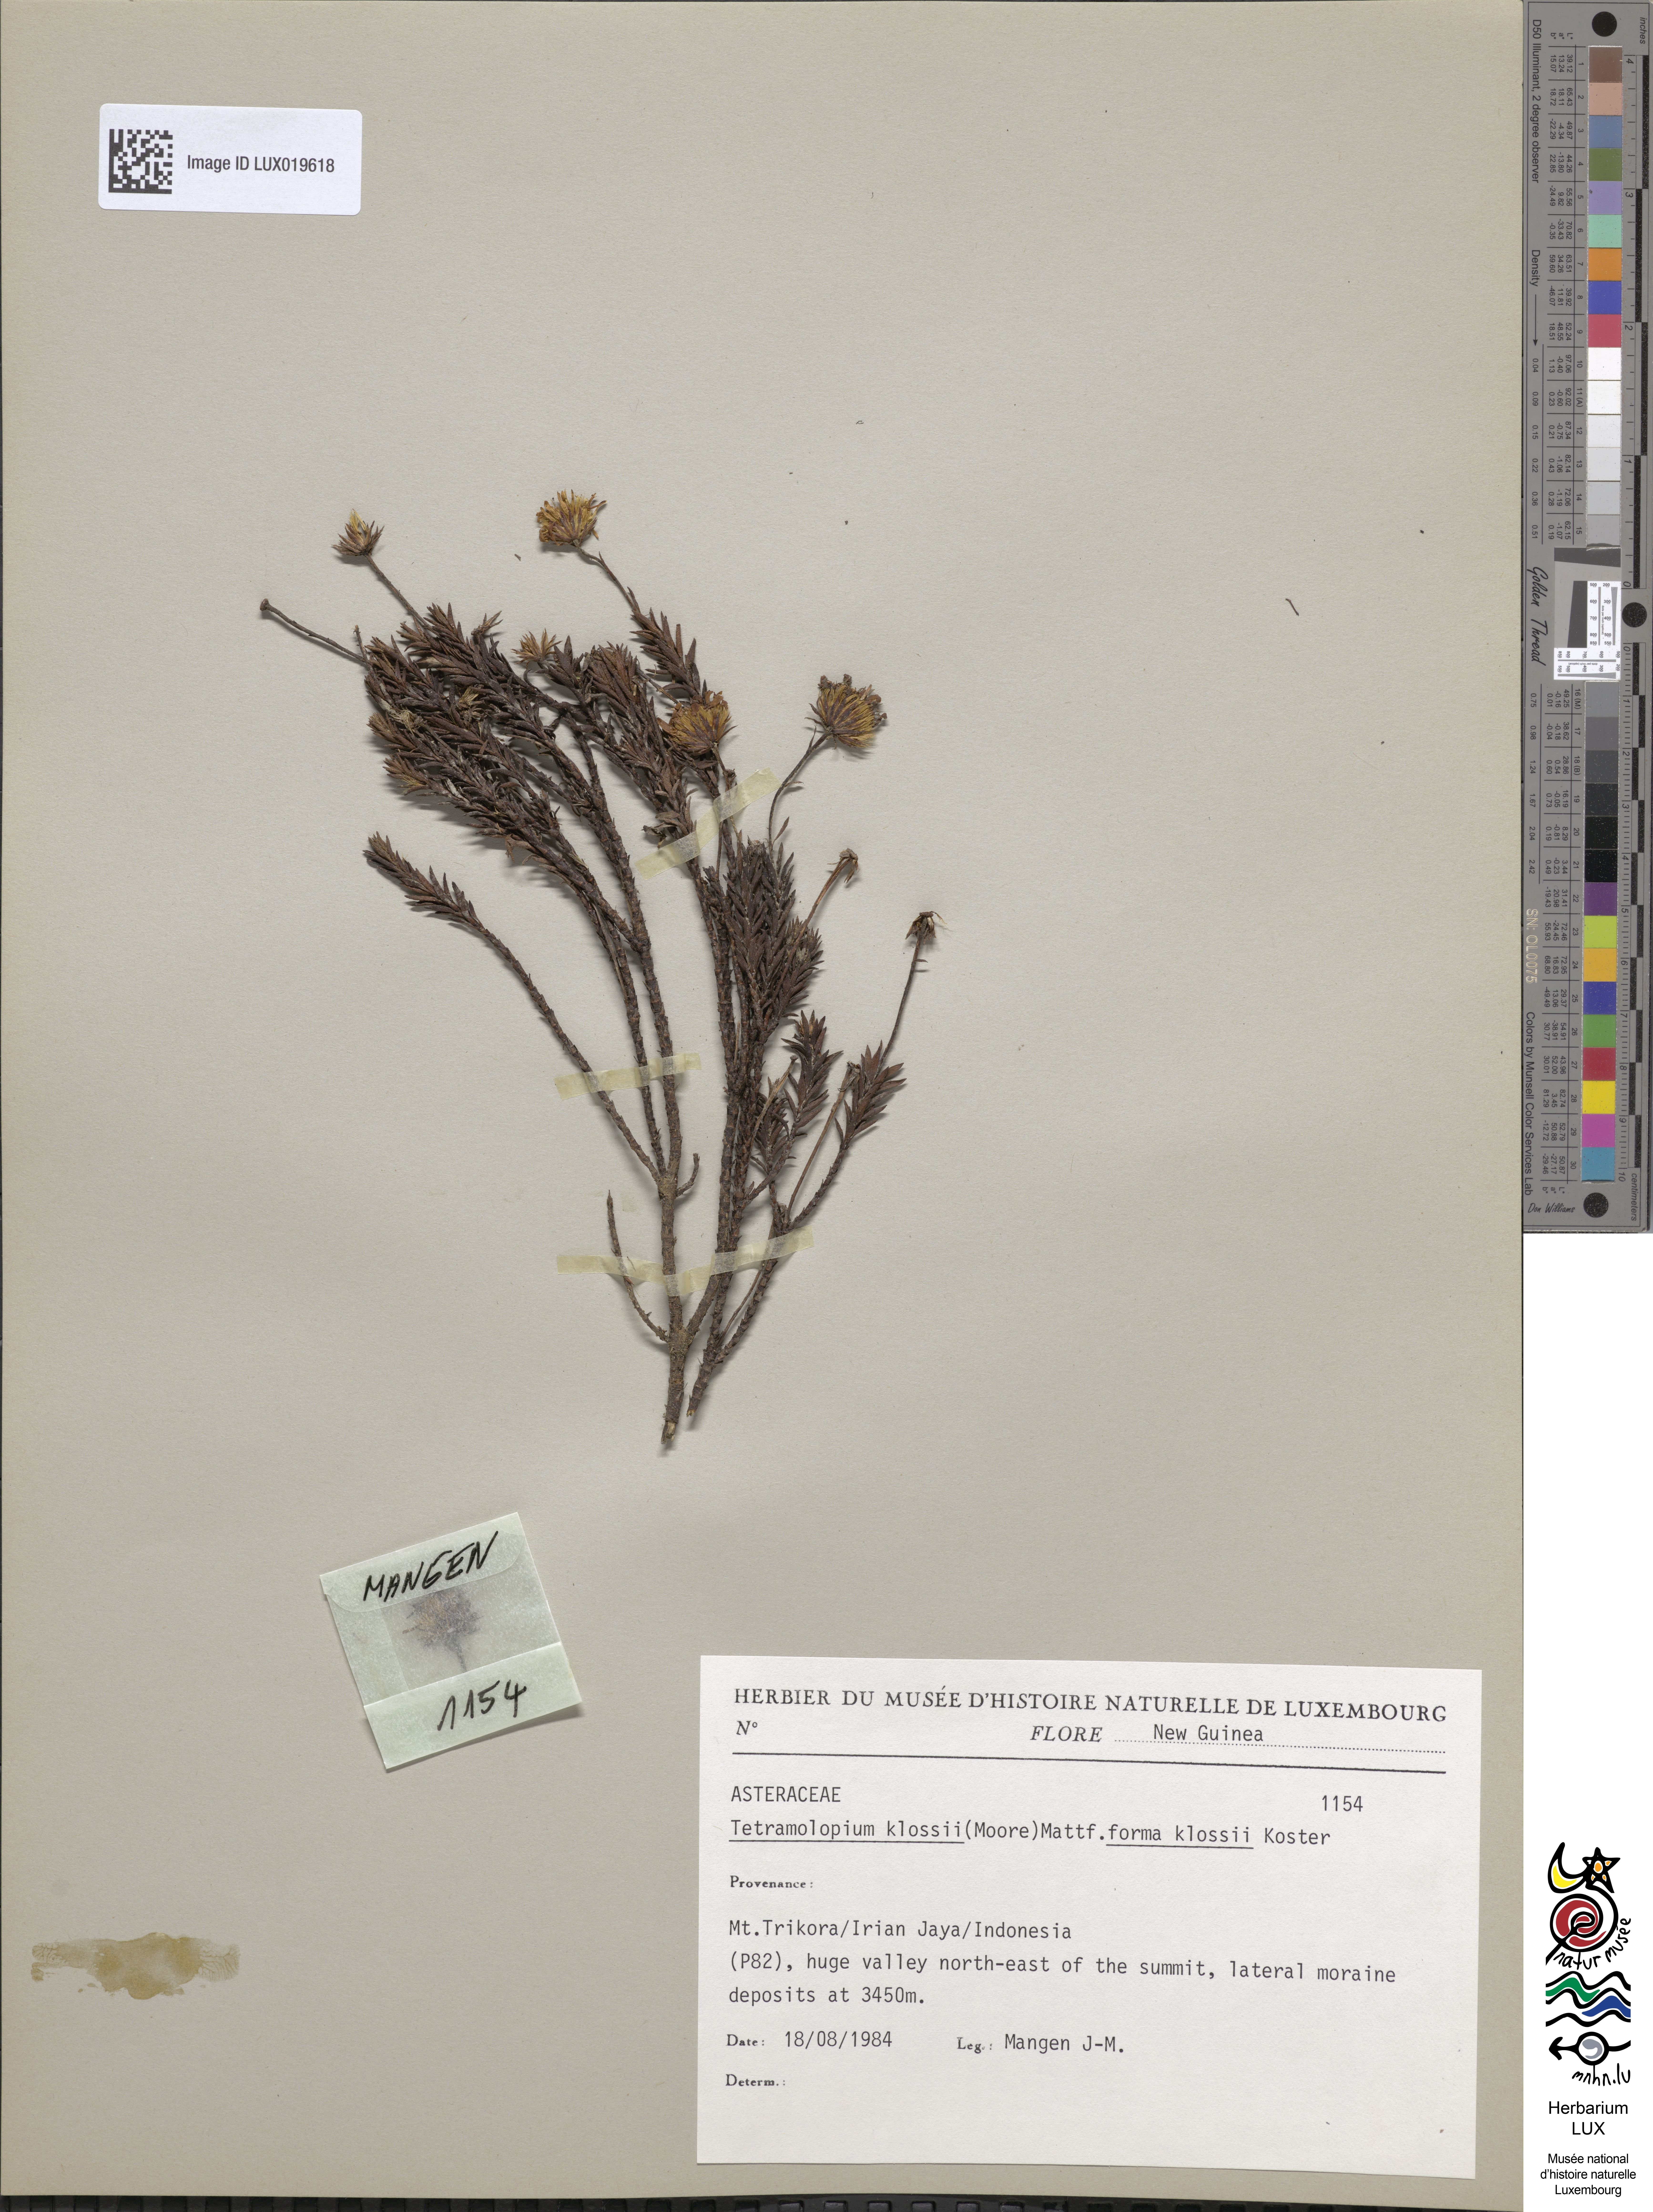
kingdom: Plantae
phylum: Tracheophyta
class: Magnoliopsida
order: Asterales
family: Asteraceae
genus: Tetramolopium
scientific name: Tetramolopium klossii
